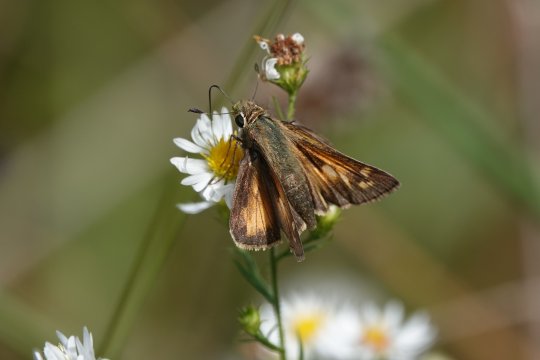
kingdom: Animalia
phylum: Arthropoda
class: Insecta
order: Lepidoptera
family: Hesperiidae
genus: Atalopedes
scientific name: Atalopedes campestris
